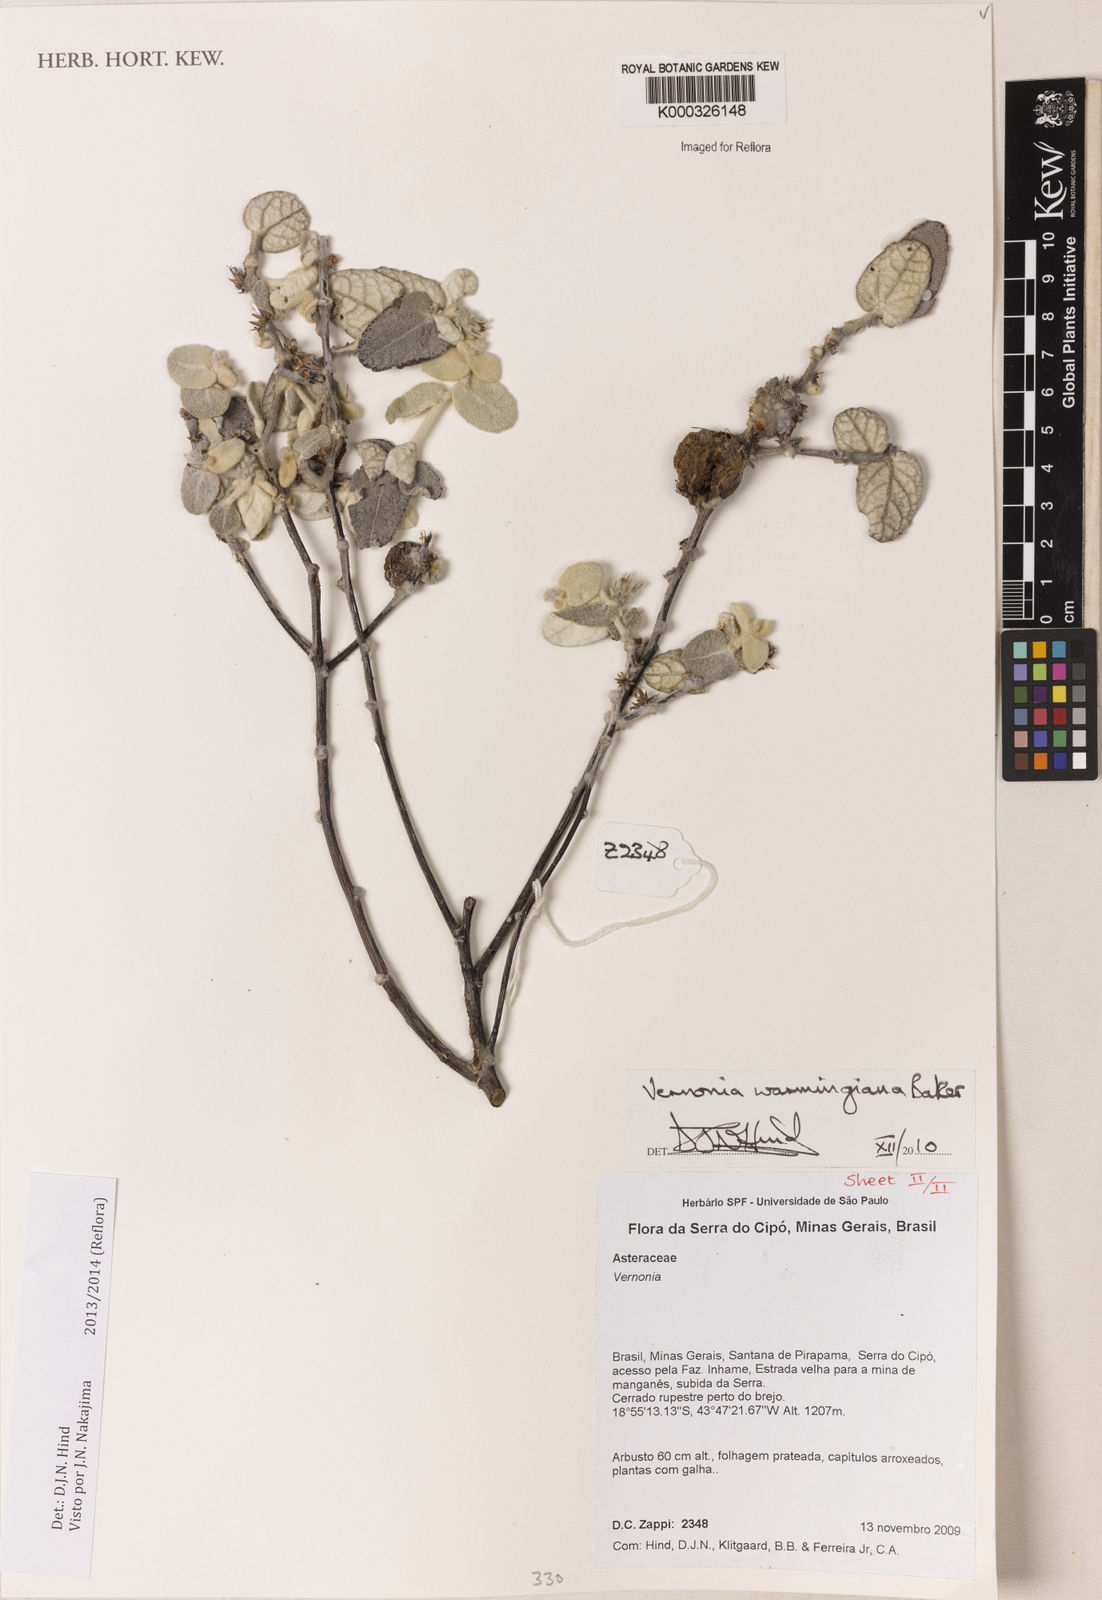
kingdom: Plantae
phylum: Tracheophyta
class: Magnoliopsida
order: Asterales
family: Asteraceae
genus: Lessingianthus
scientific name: Lessingianthus warmingianus
